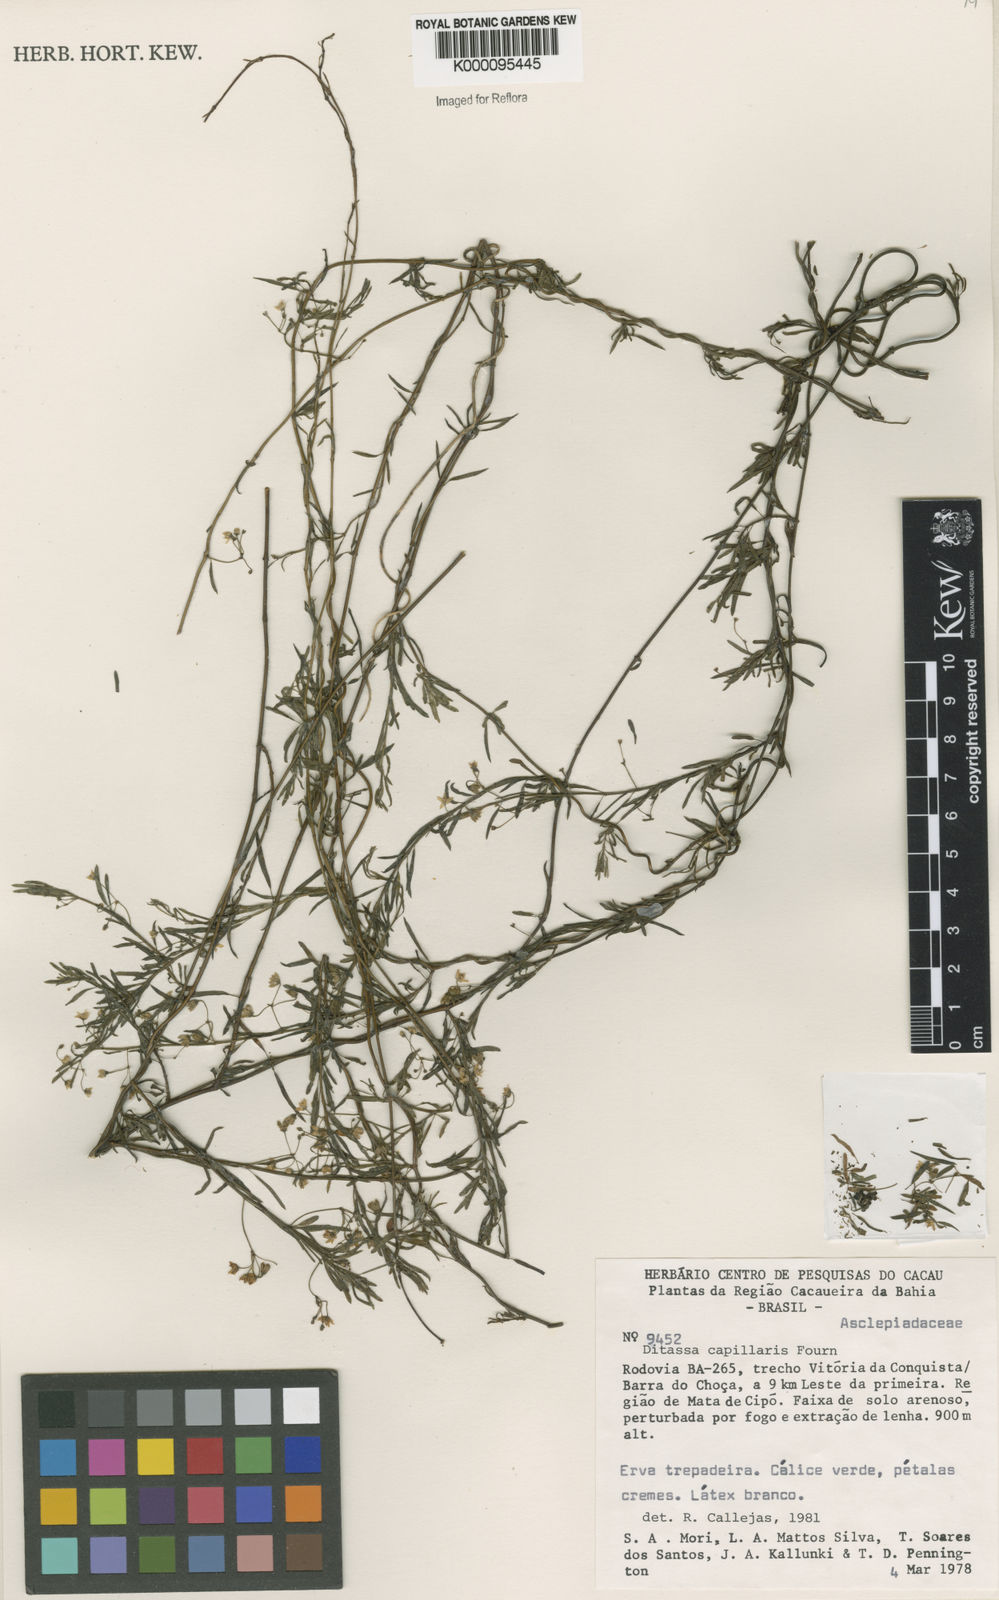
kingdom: Plantae
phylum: Tracheophyta
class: Magnoliopsida
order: Gentianales
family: Apocynaceae
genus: Ditassa
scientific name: Ditassa capillaris
